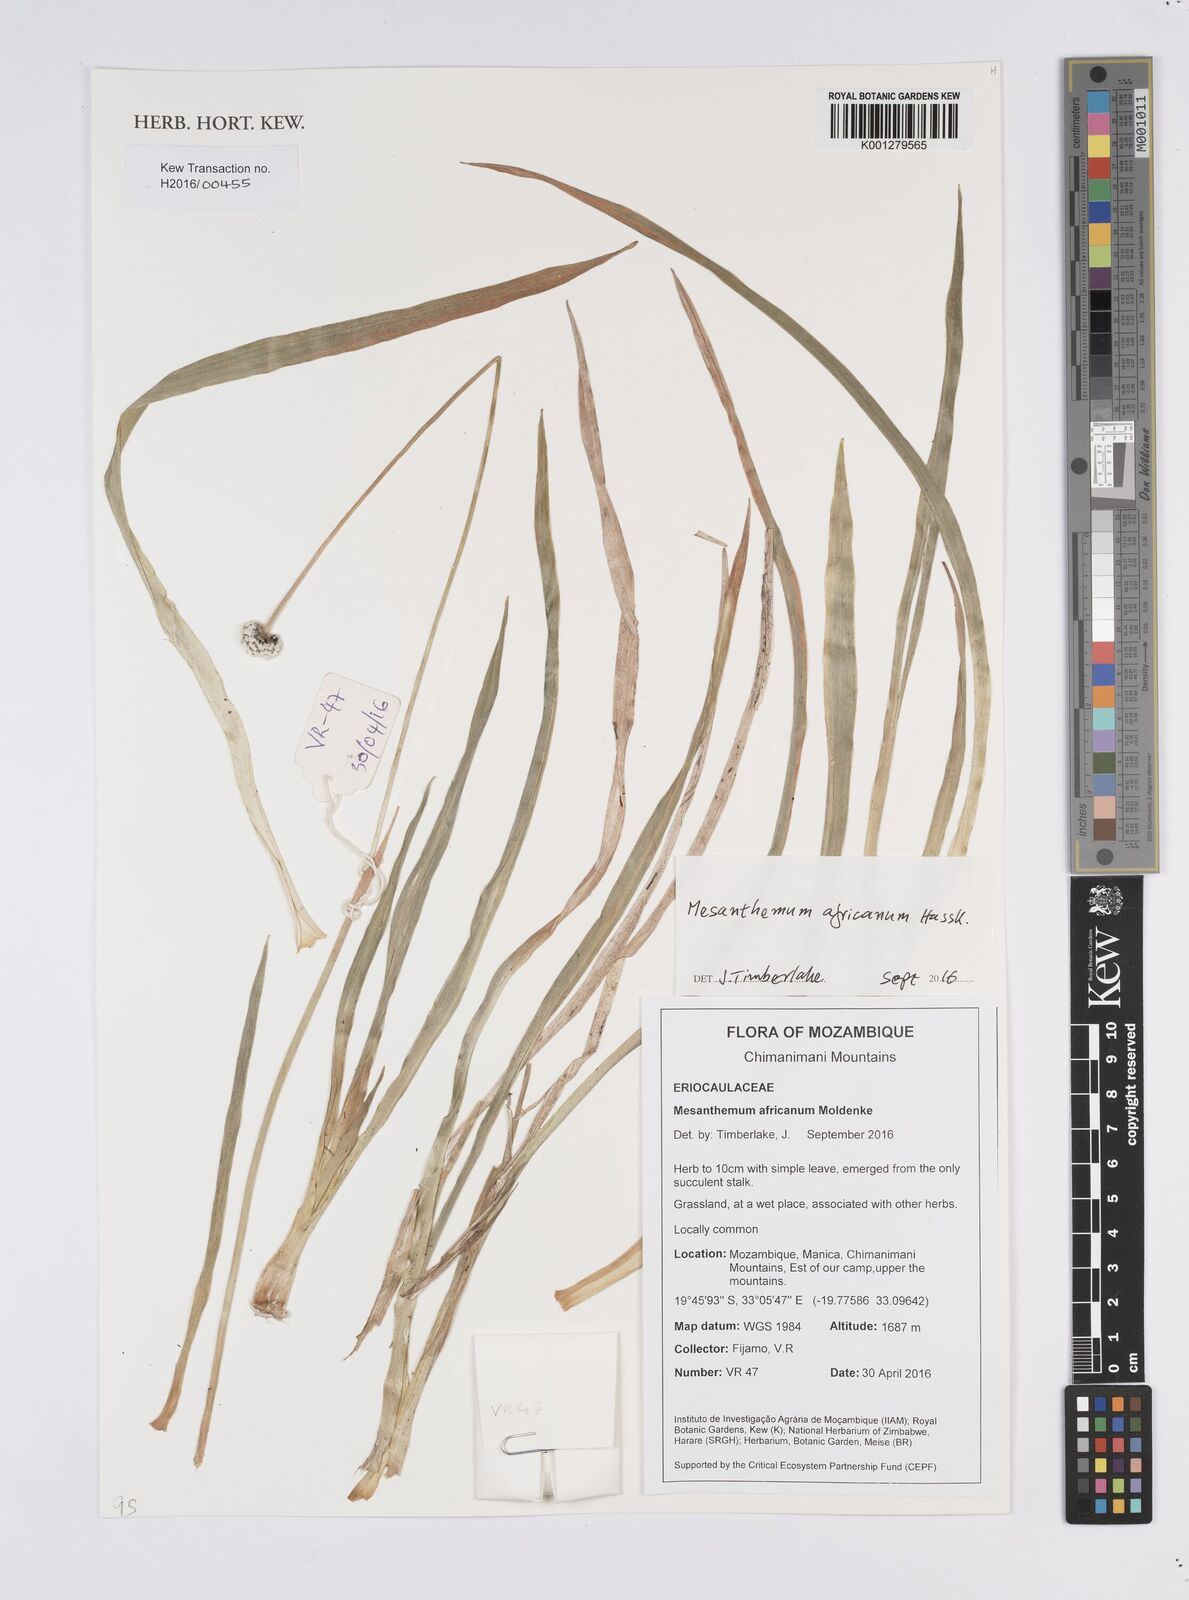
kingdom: Plantae
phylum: Tracheophyta
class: Liliopsida
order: Poales
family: Eriocaulaceae
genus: Mesanthemum
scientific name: Mesanthemum africanum
